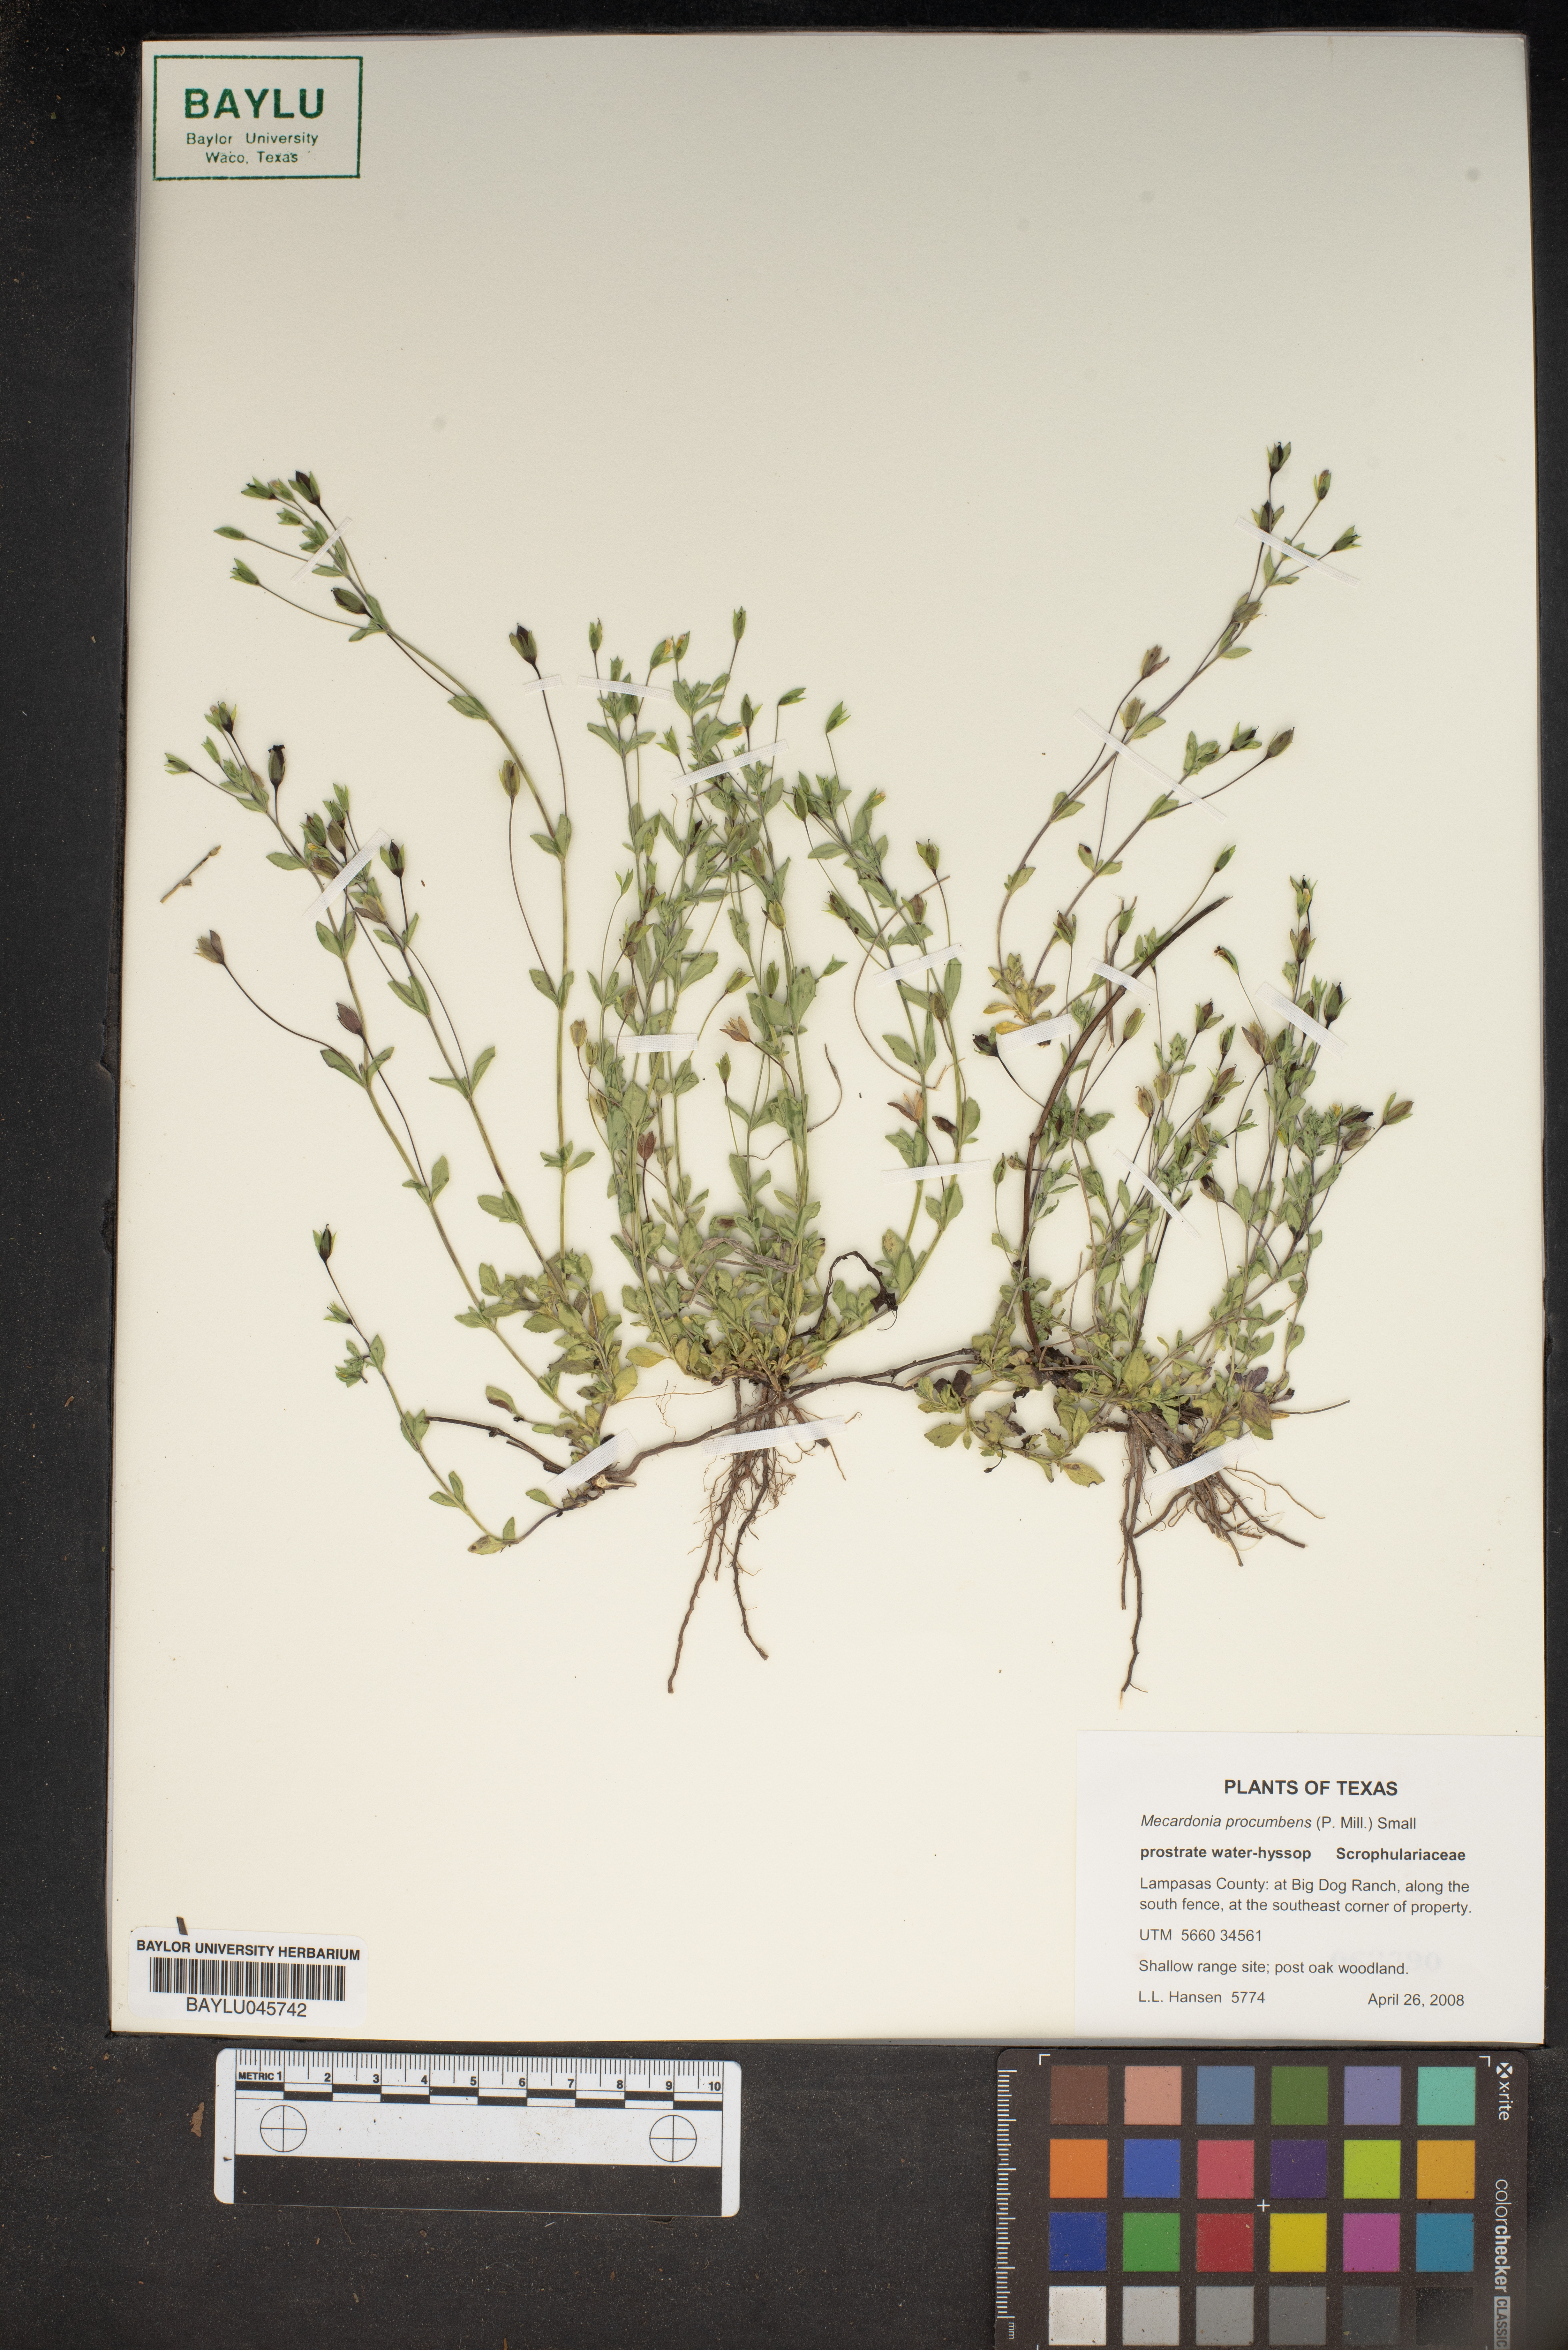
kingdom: Plantae
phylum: Tracheophyta
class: Magnoliopsida
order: Lamiales
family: Plantaginaceae
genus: Mecardonia
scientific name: Mecardonia procumbens
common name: Baby jump-up
